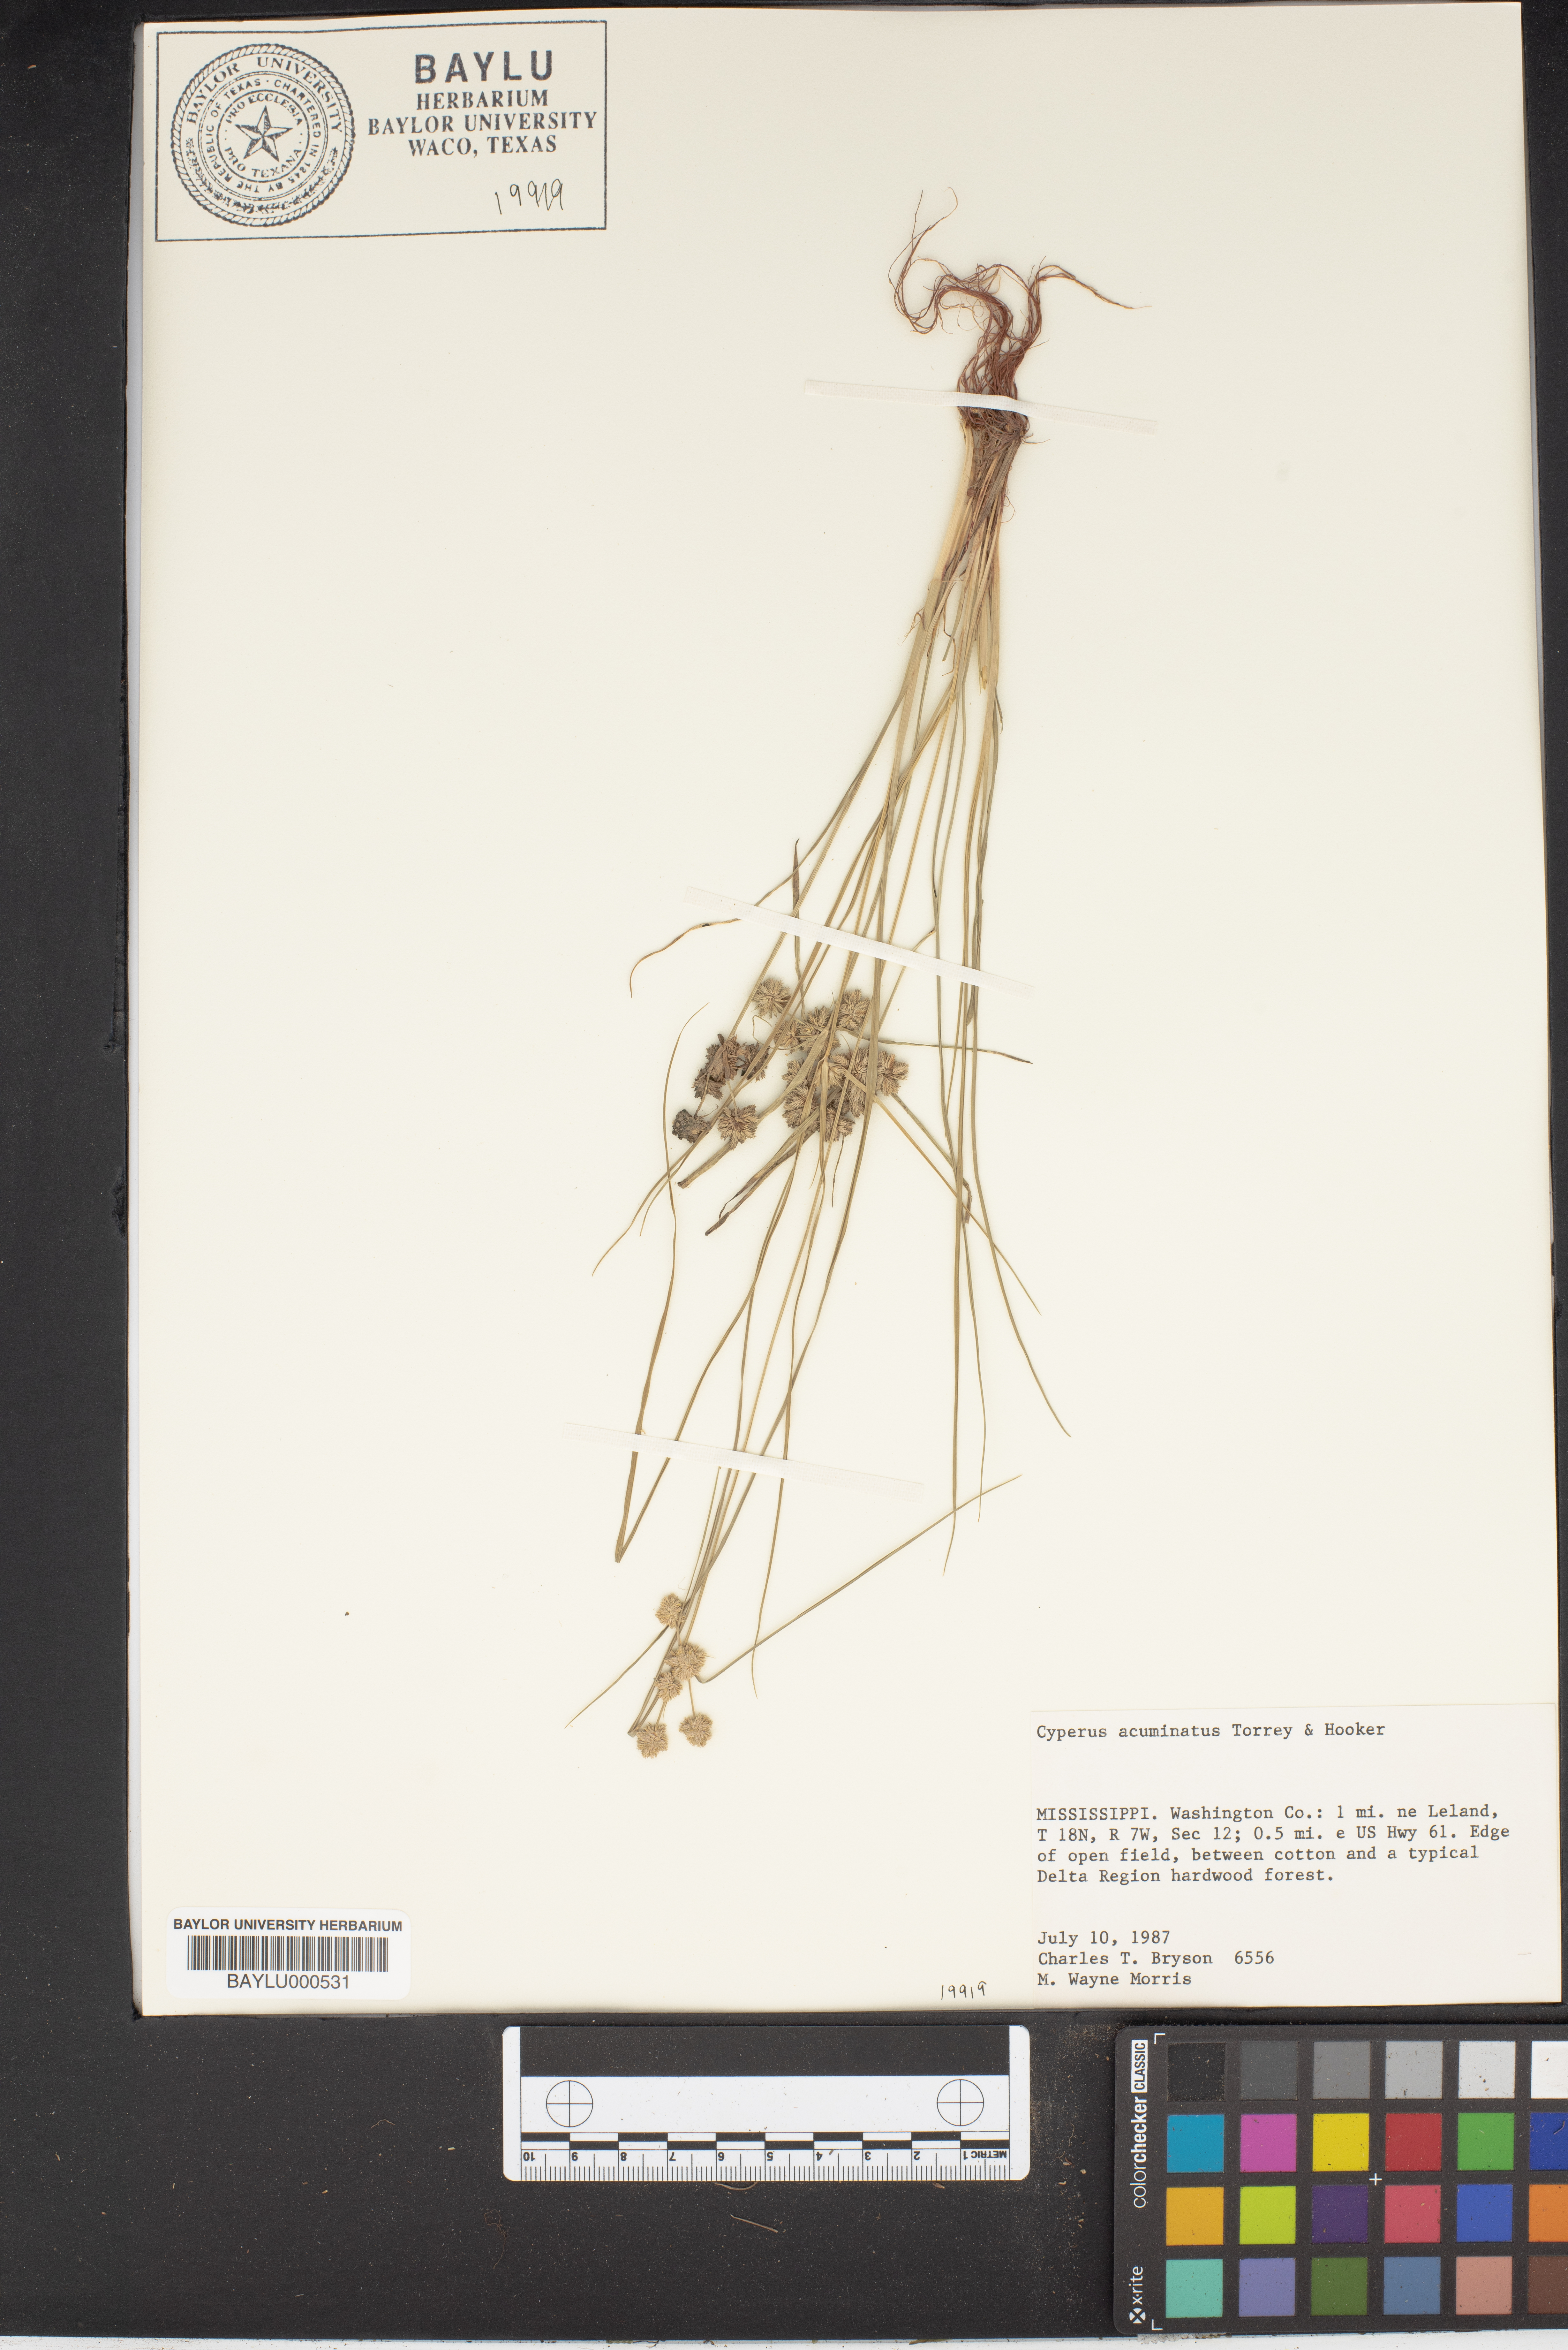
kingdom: Plantae
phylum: Tracheophyta
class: Liliopsida
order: Poales
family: Cyperaceae
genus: Cyperus
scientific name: Cyperus acuminatus
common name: Short-pointed cyperus
